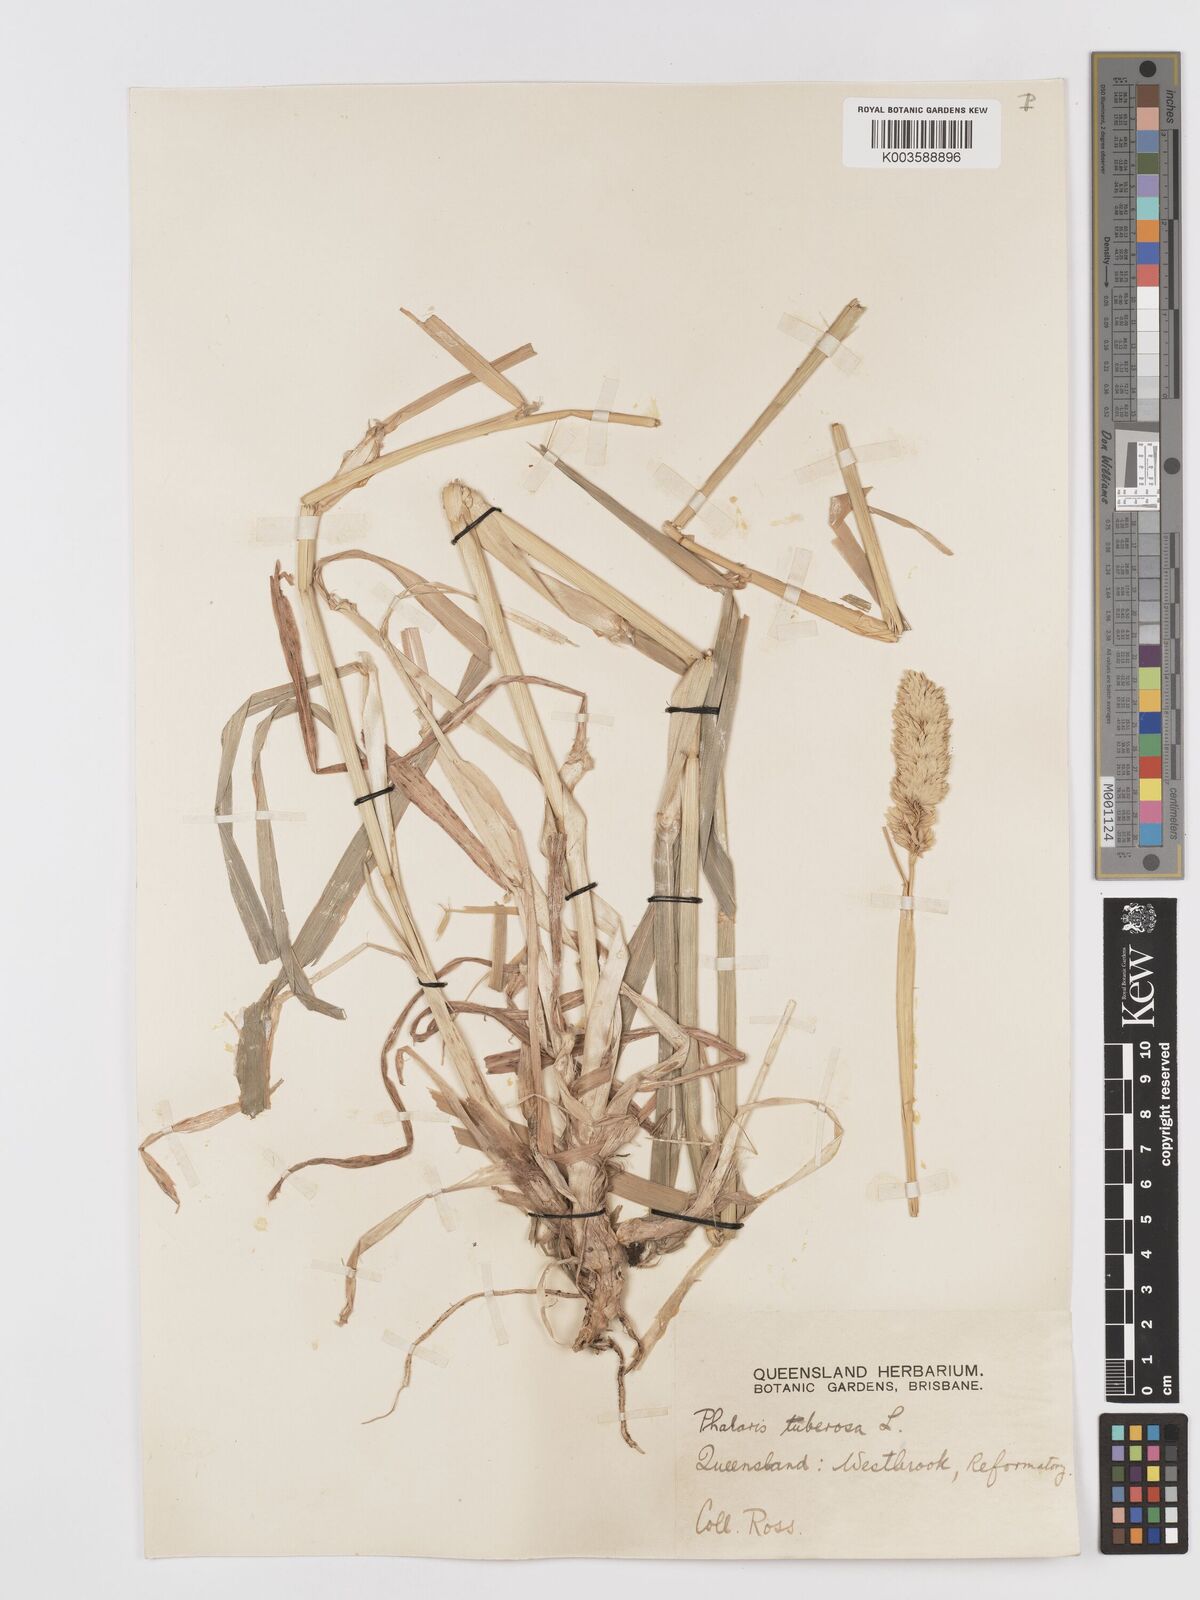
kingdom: Plantae
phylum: Tracheophyta
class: Liliopsida
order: Poales
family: Poaceae
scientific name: Poaceae
